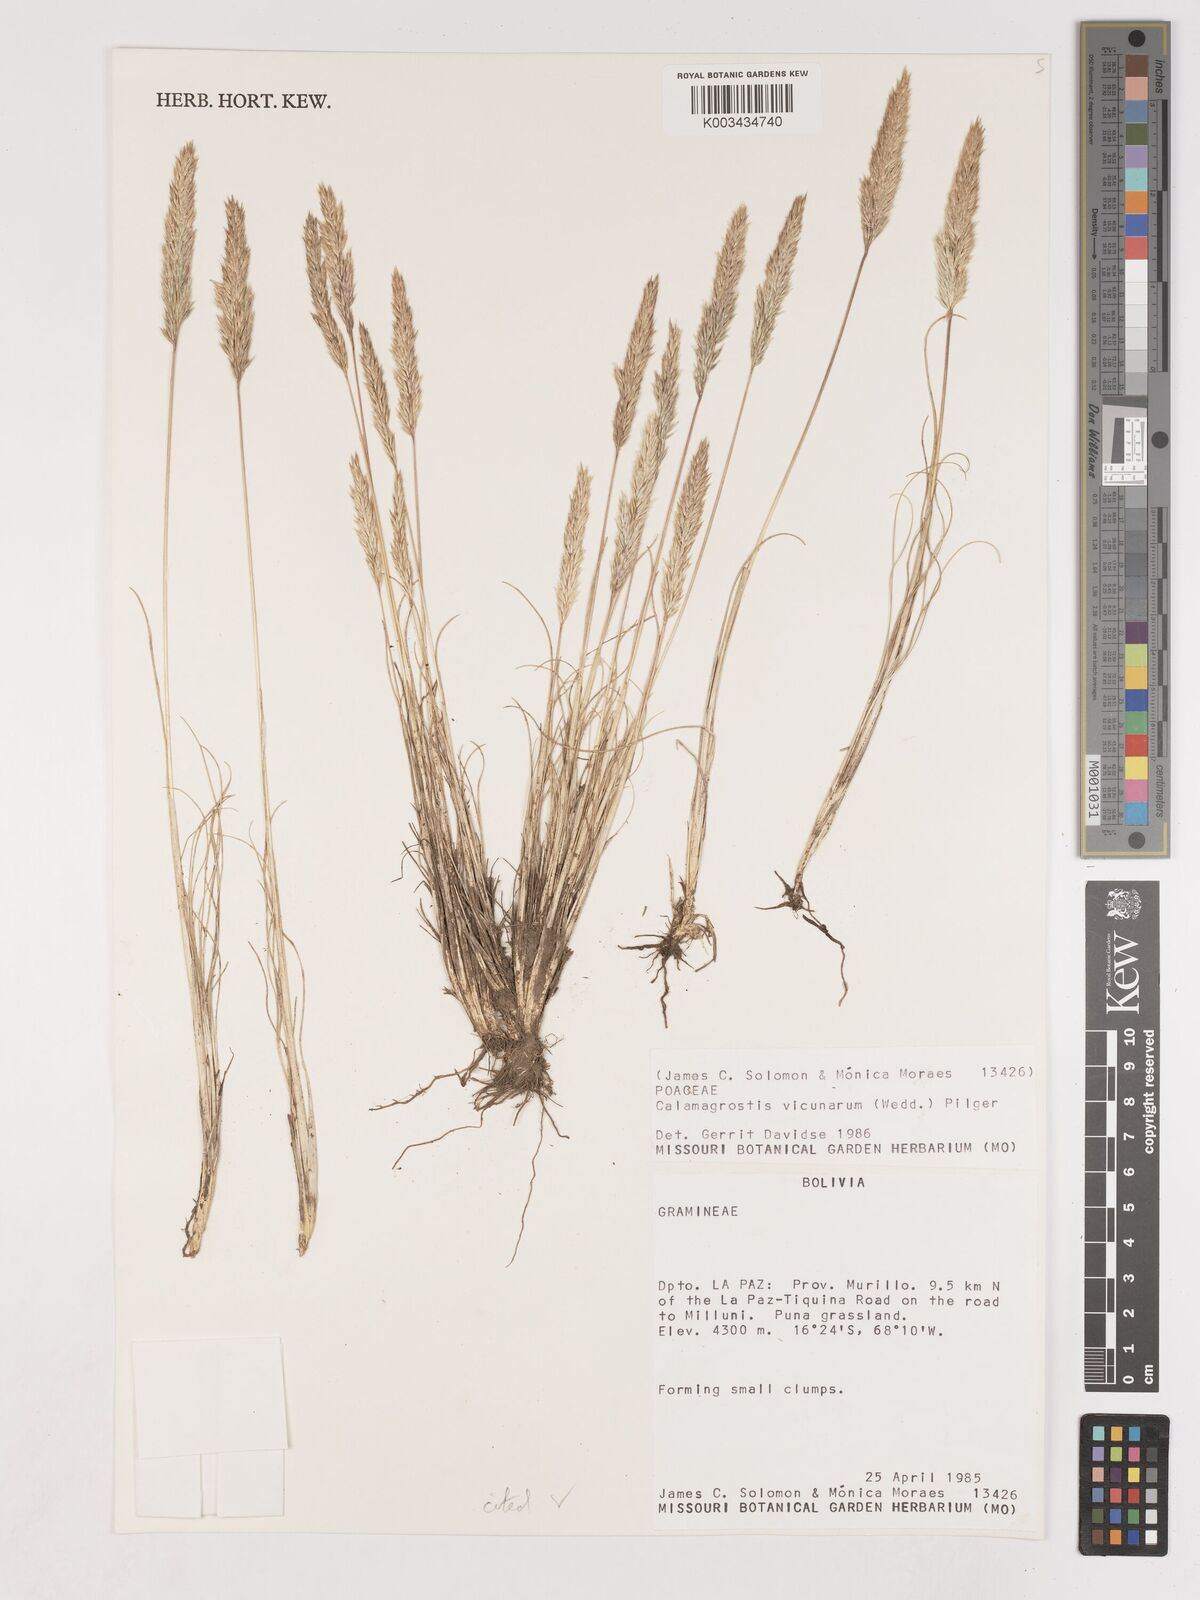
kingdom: Plantae
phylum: Tracheophyta
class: Liliopsida
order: Poales
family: Poaceae
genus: Cinnagrostis
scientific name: Cinnagrostis vicunarum
